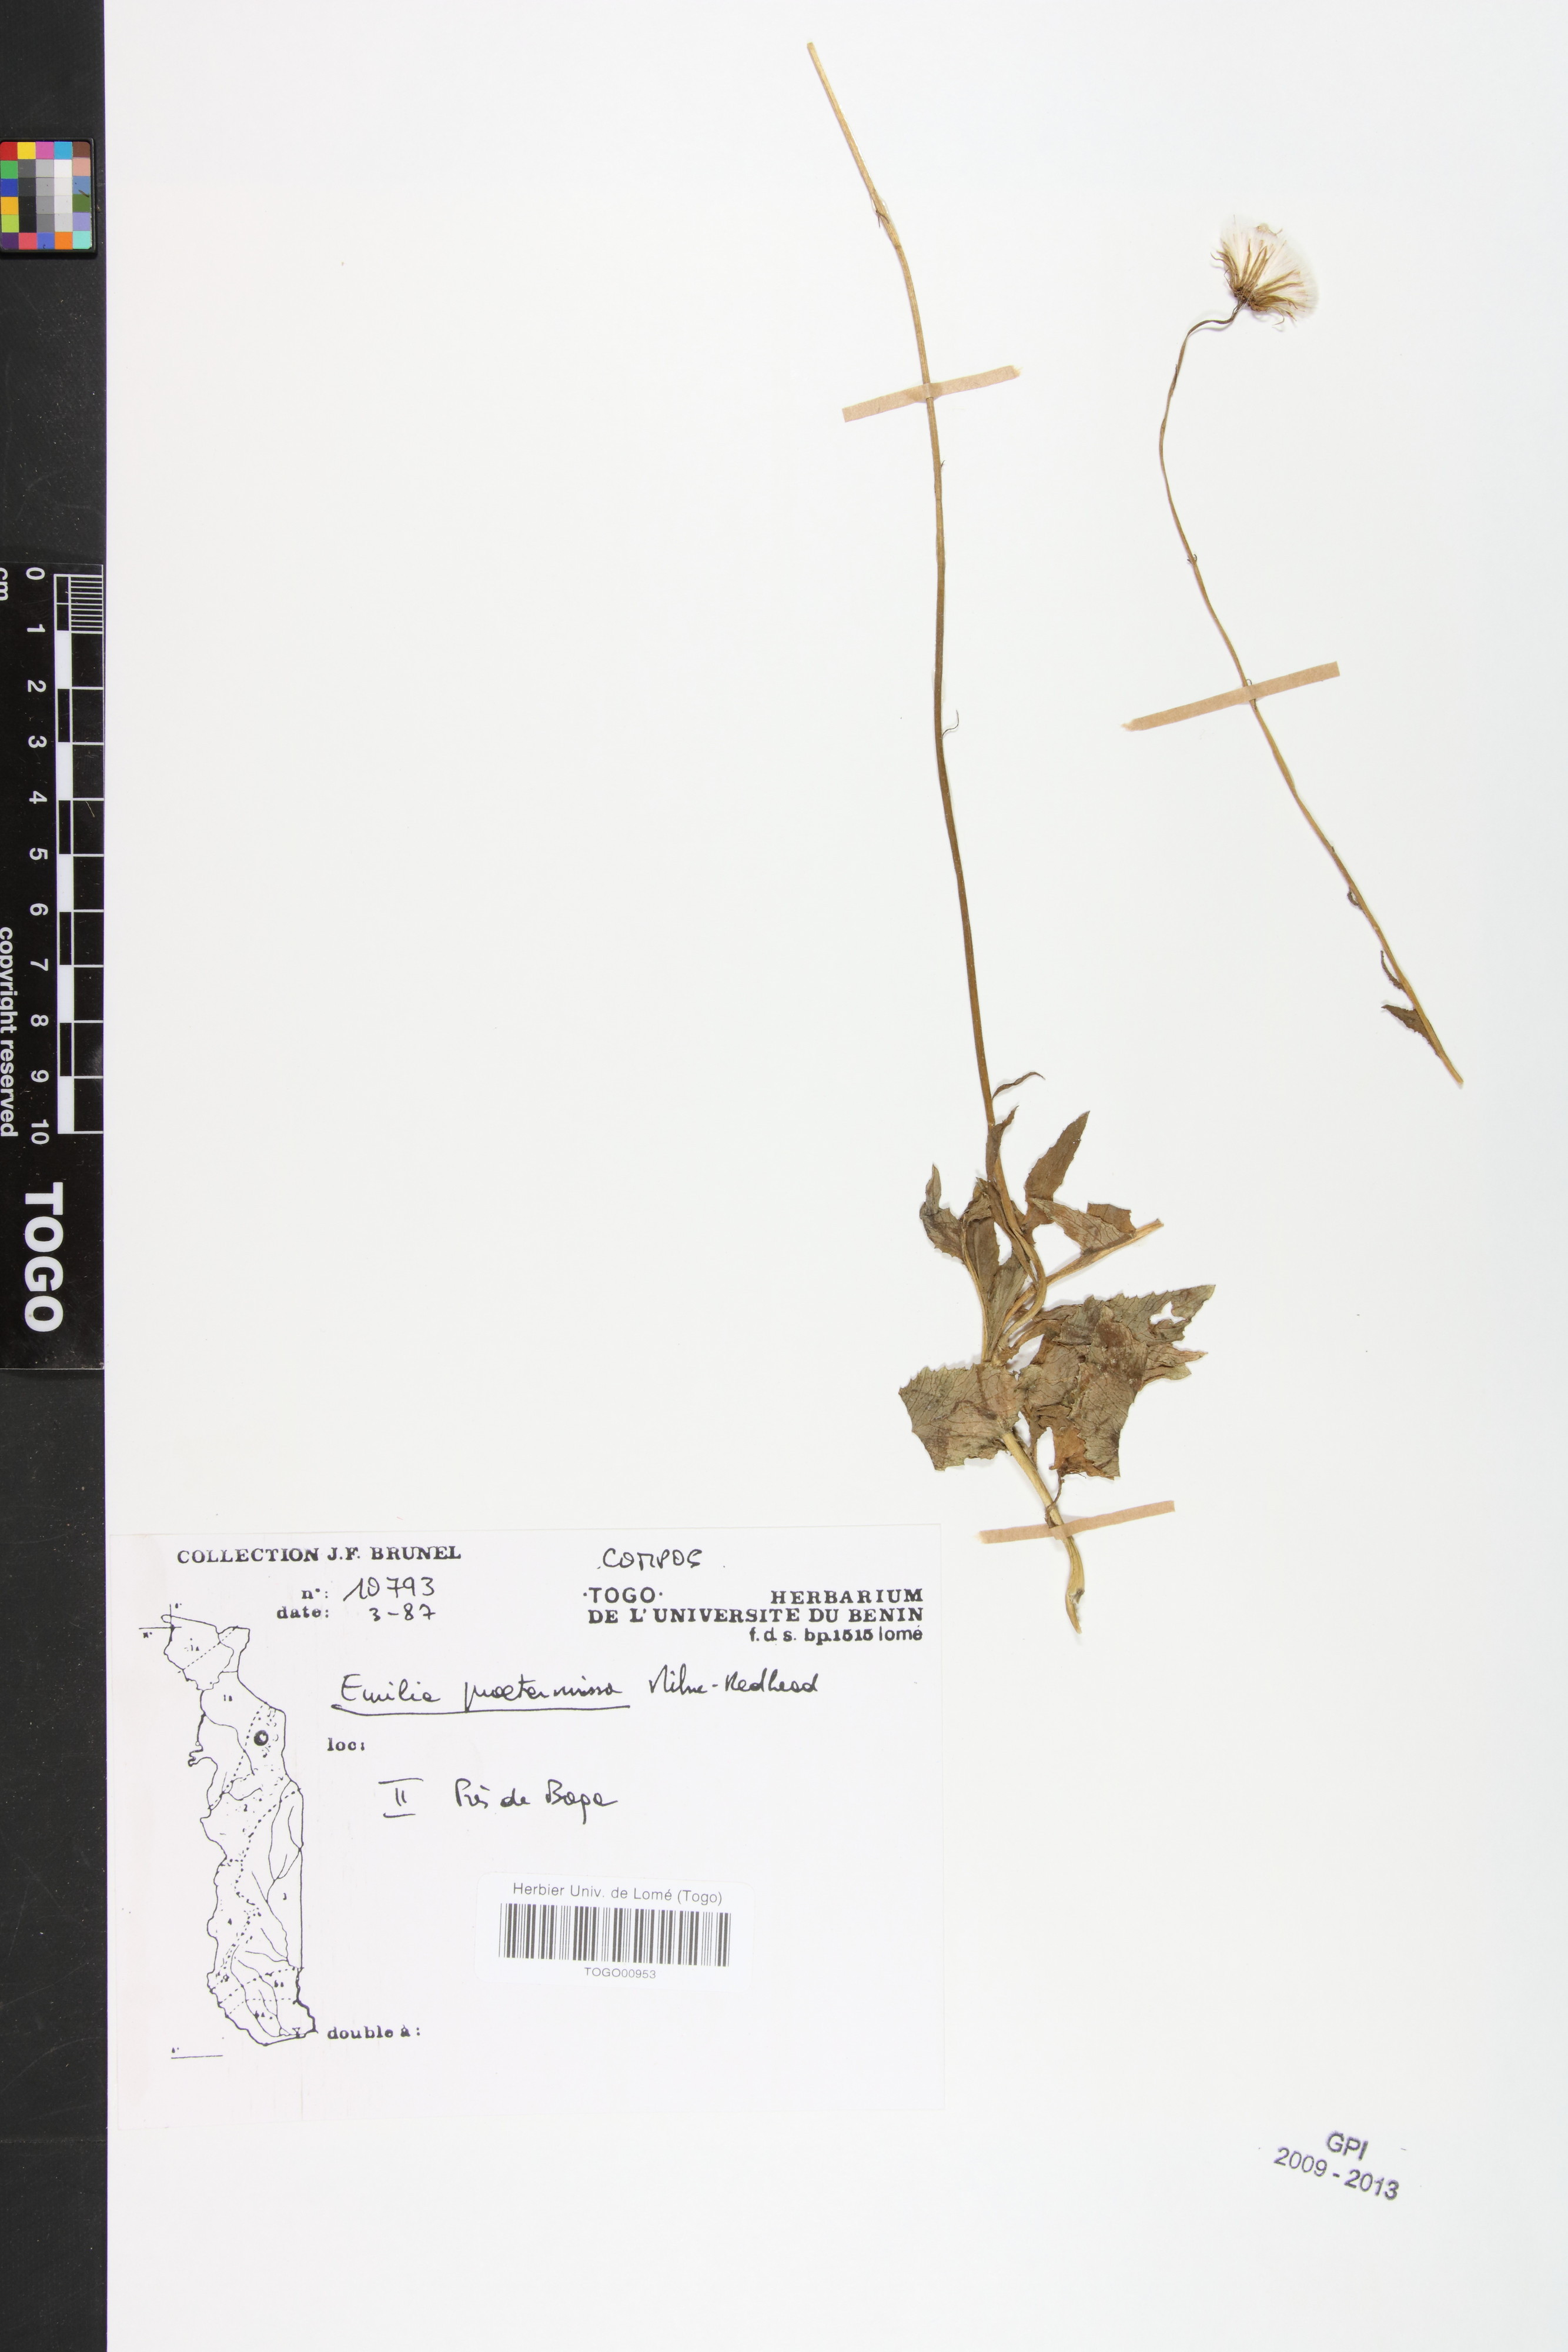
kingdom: Plantae
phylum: Tracheophyta
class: Magnoliopsida
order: Asterales
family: Asteraceae
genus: Emilia
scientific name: Emilia praetermissa
